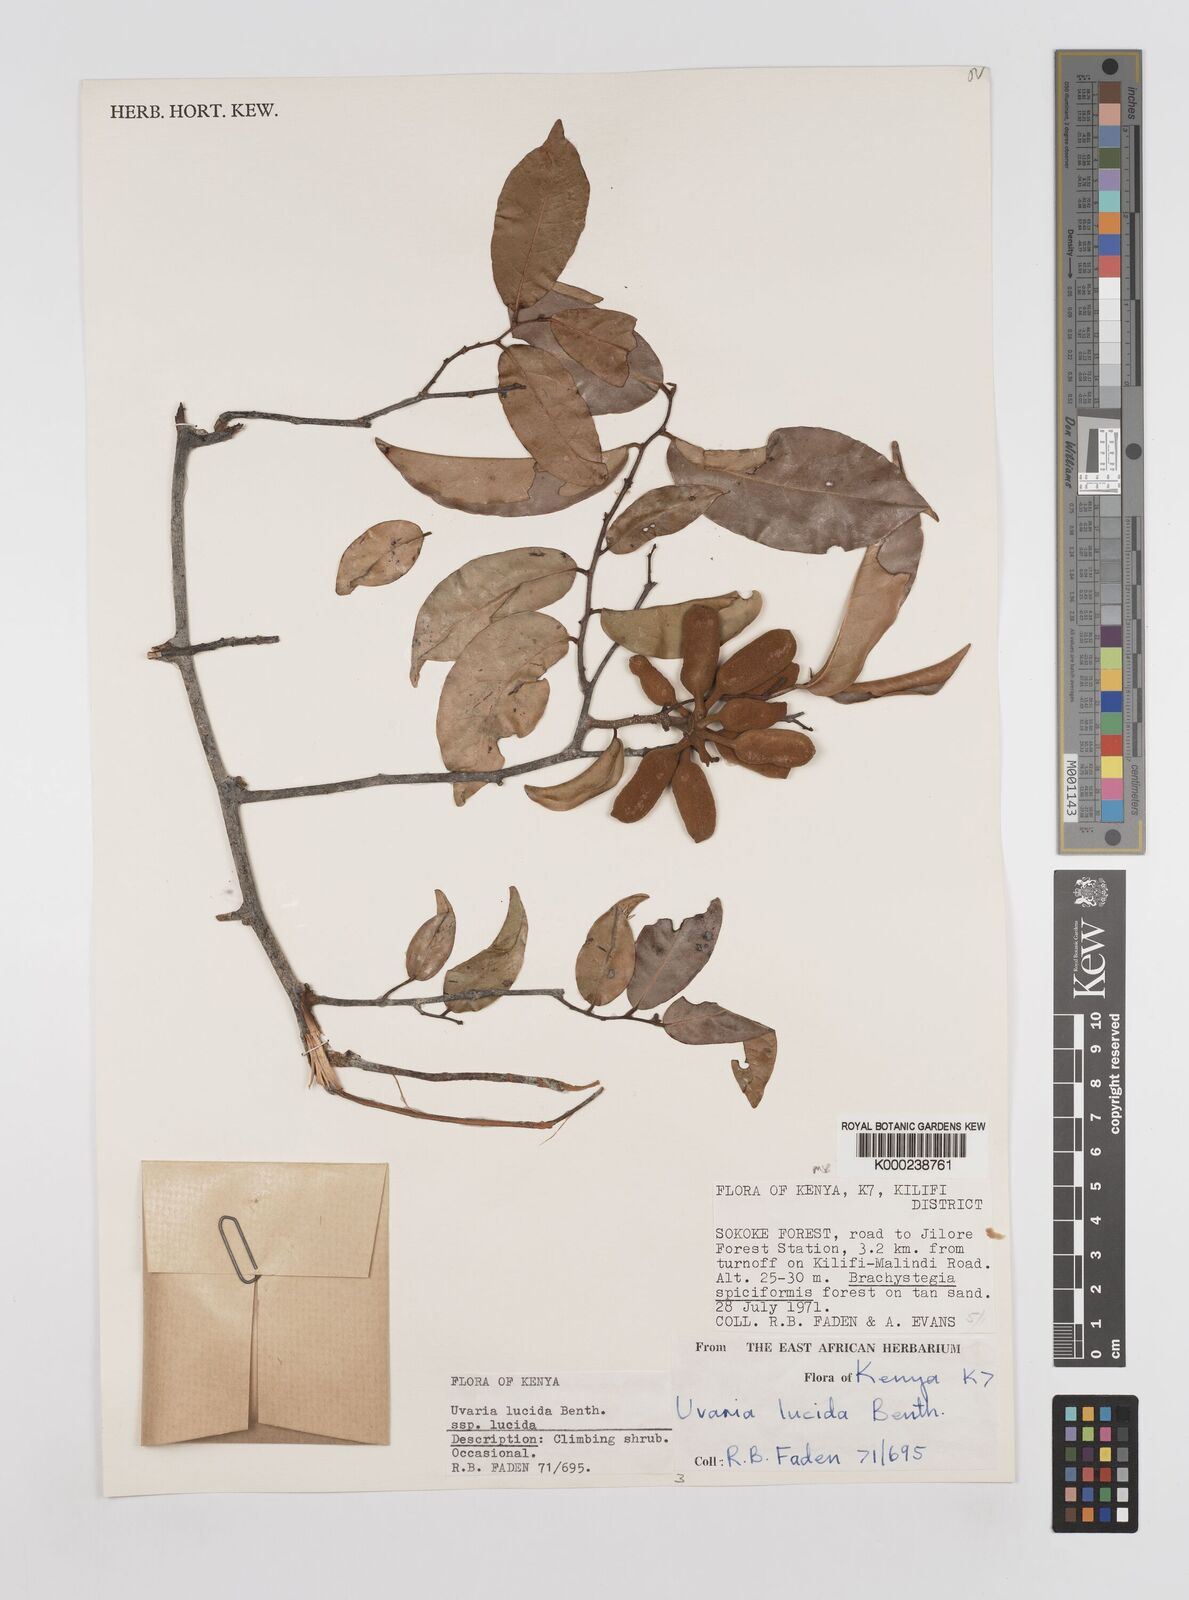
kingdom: Plantae
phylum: Tracheophyta
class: Magnoliopsida
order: Magnoliales
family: Annonaceae
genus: Uvaria
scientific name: Uvaria lucida
